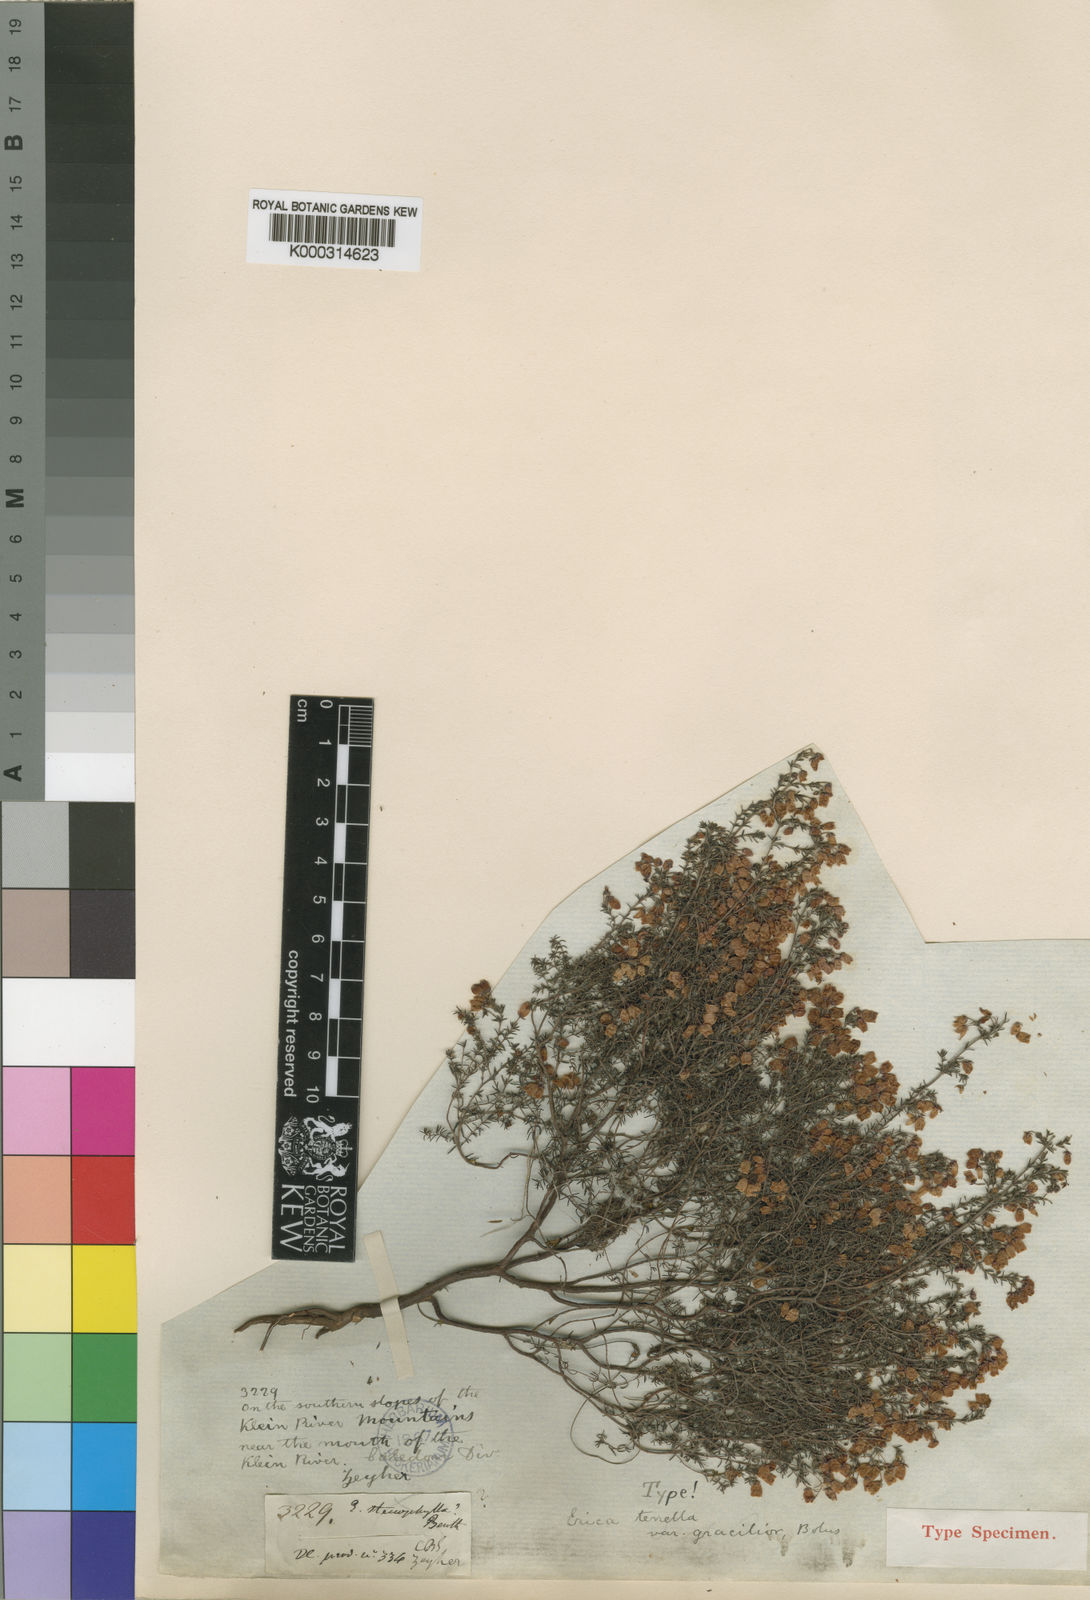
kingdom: Plantae
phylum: Tracheophyta
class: Magnoliopsida
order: Ericales
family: Ericaceae
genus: Erica
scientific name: Erica tenella
